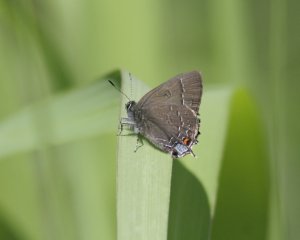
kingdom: Animalia
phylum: Arthropoda
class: Insecta
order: Lepidoptera
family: Lycaenidae
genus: Satyrium
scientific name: Satyrium calanus
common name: Banded Hairstreak
